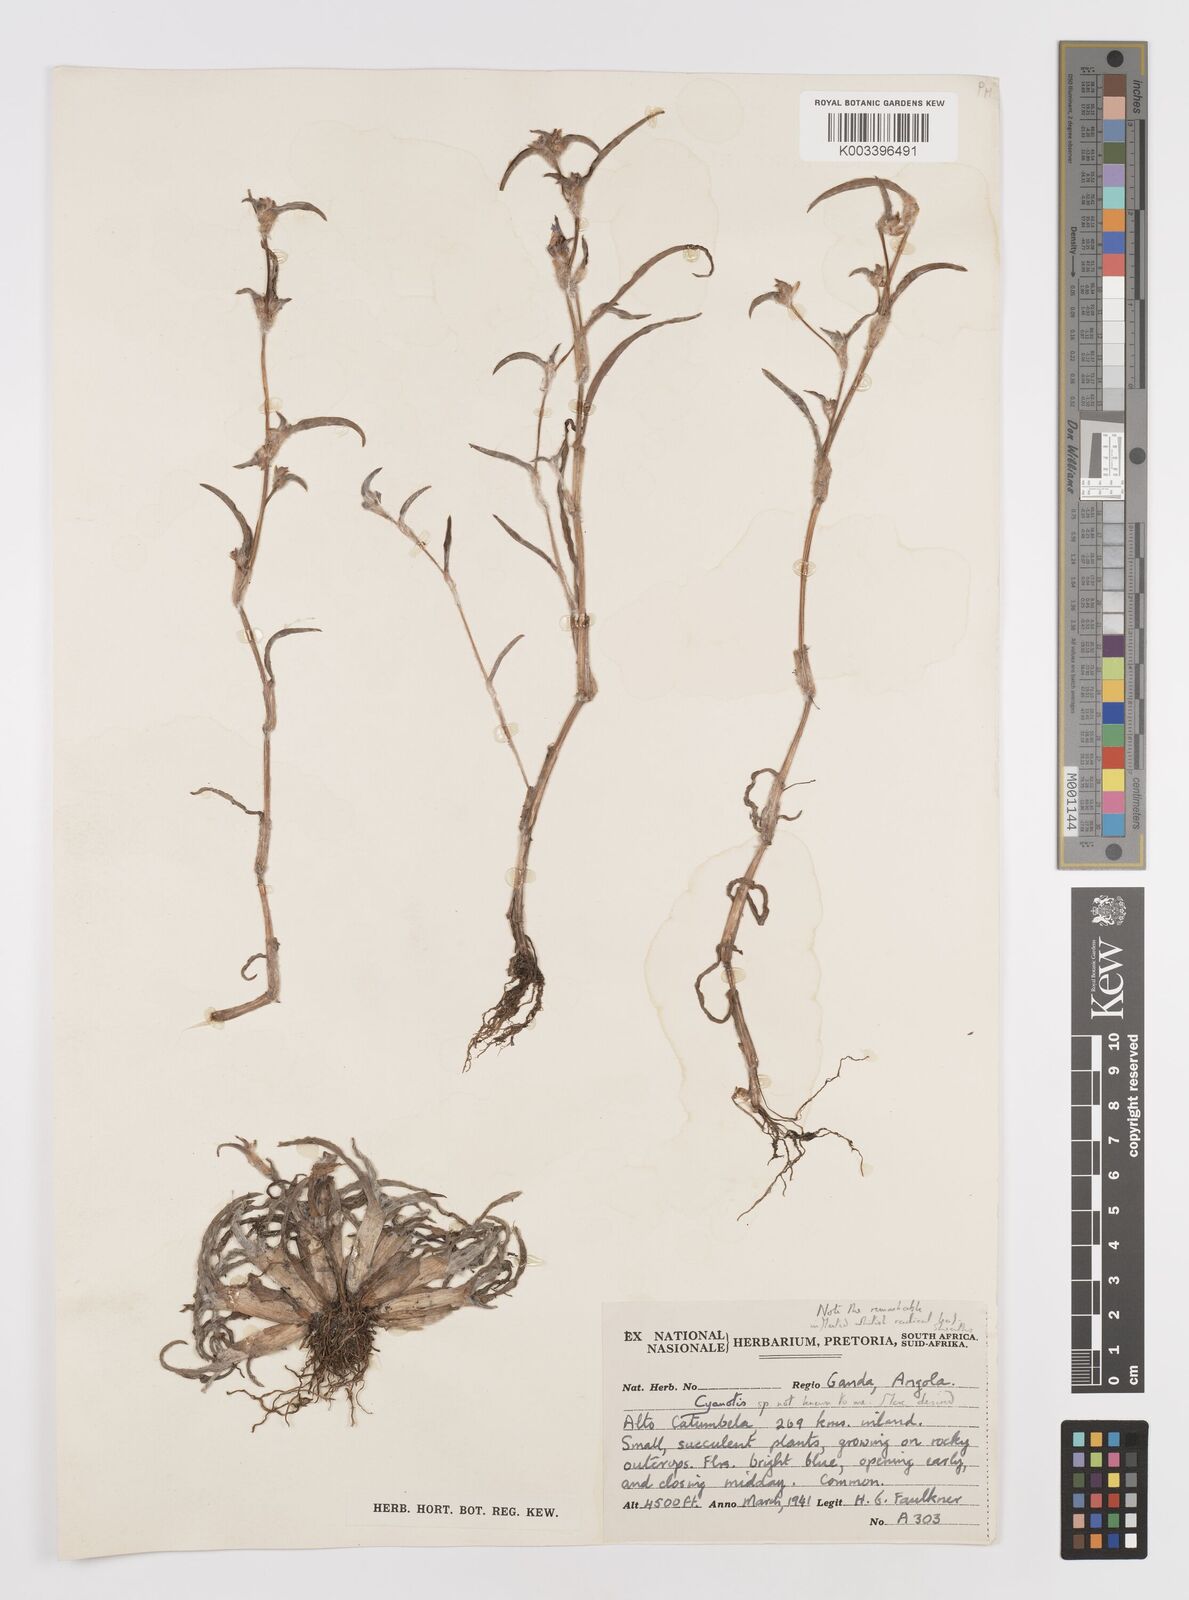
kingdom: Plantae
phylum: Tracheophyta
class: Liliopsida
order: Commelinales
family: Commelinaceae
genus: Cyanotis
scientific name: Cyanotis
